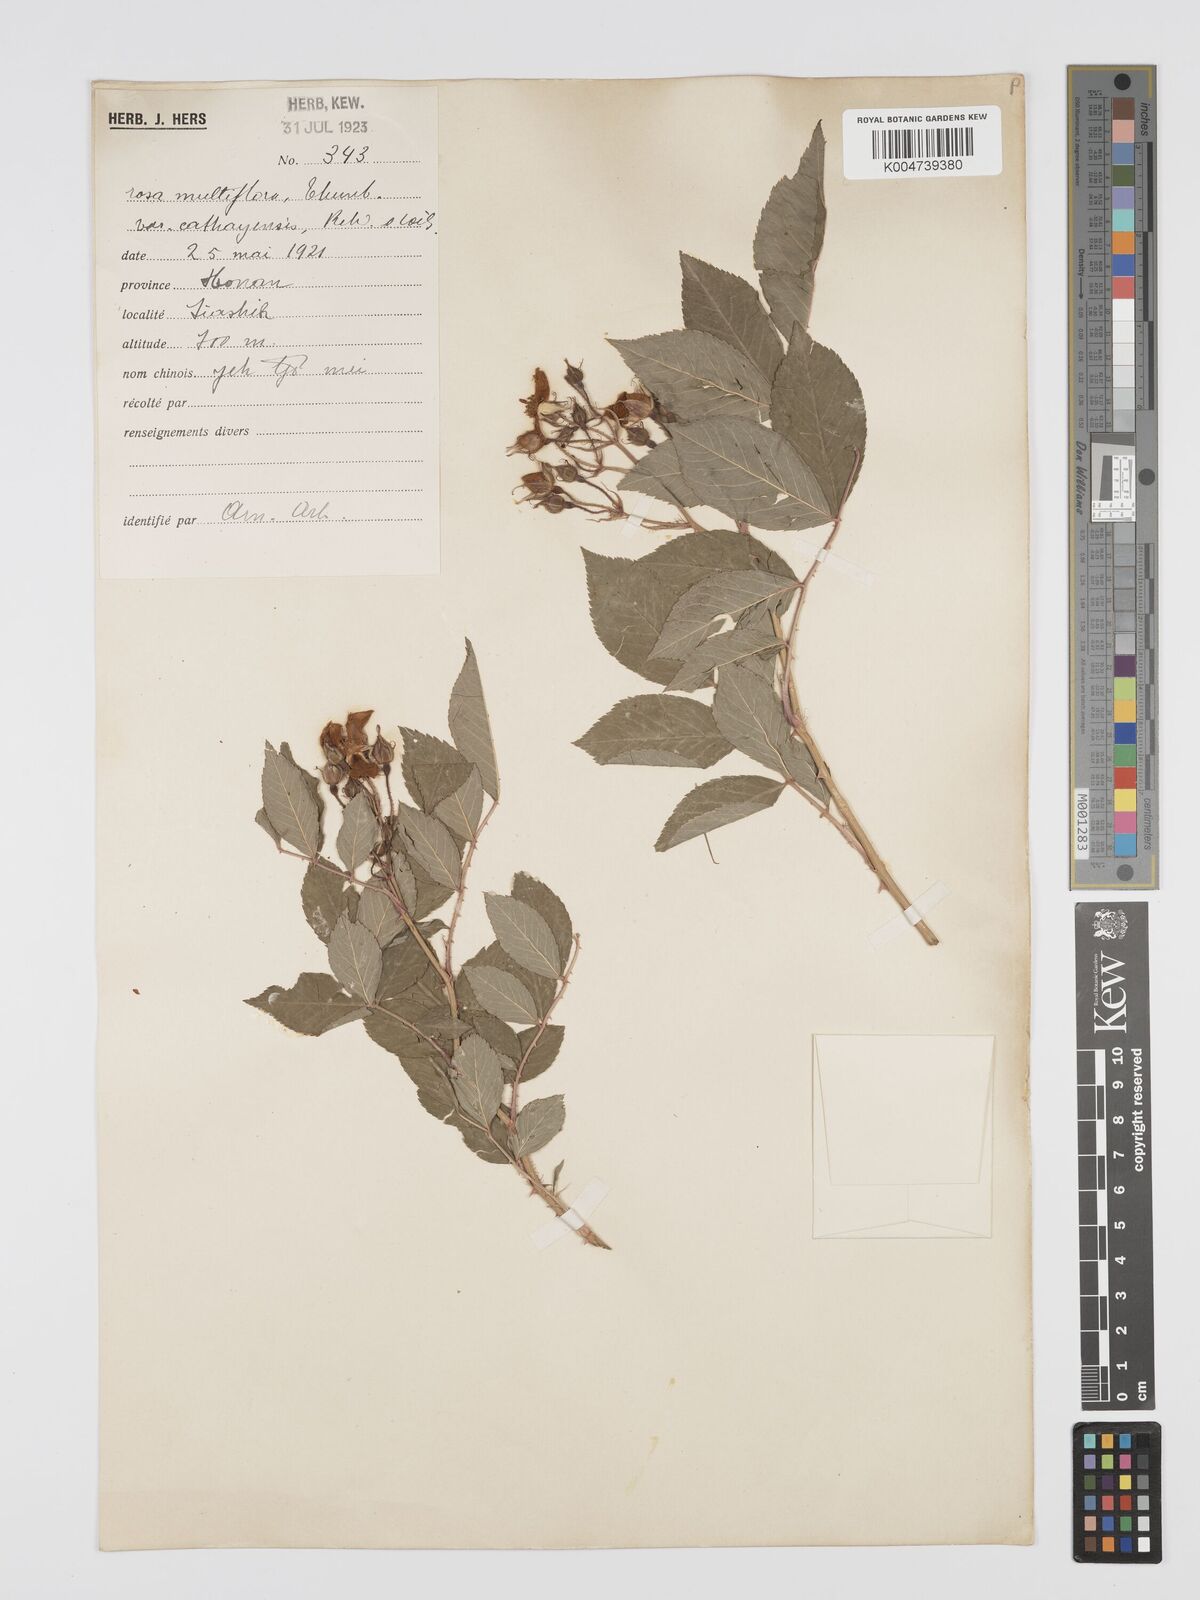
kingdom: Plantae
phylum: Tracheophyta
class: Magnoliopsida
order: Rosales
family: Rosaceae
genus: Rosa
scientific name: Rosa multiflora
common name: Multiflora rose
